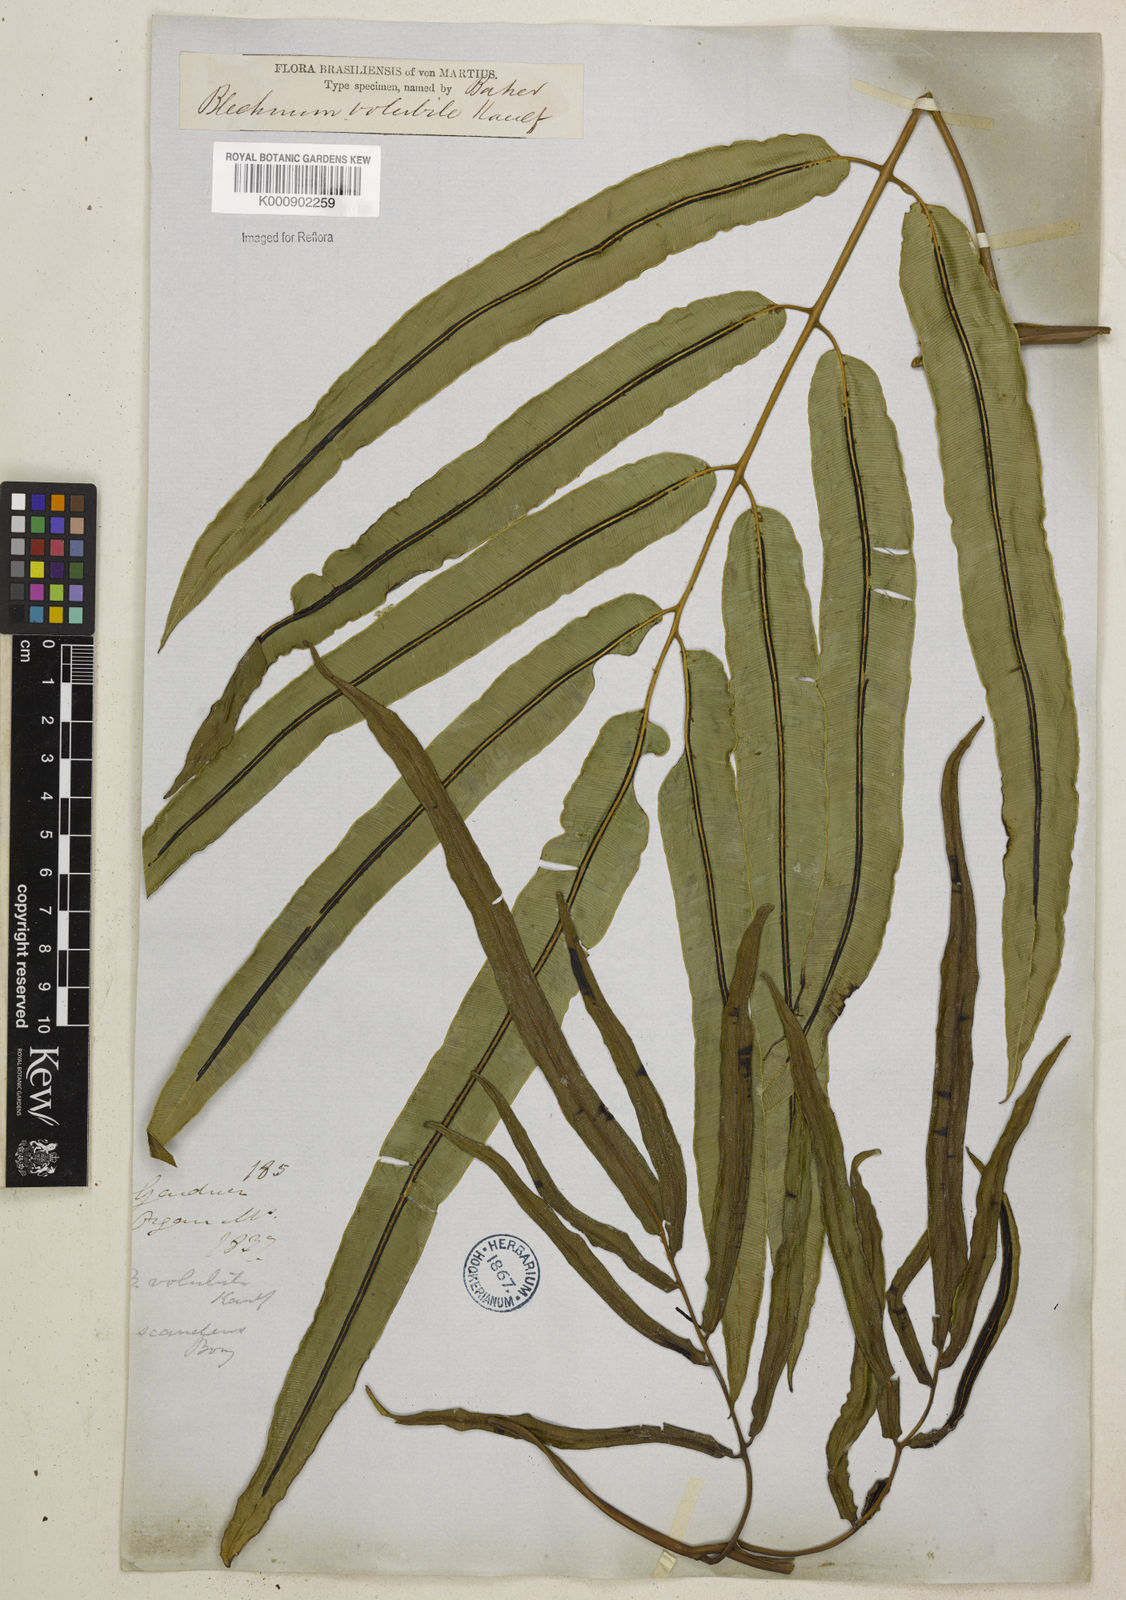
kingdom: Plantae
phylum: Tracheophyta
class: Polypodiopsida
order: Polypodiales
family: Blechnaceae
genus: Salpichlaena
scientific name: Salpichlaena volubilis
